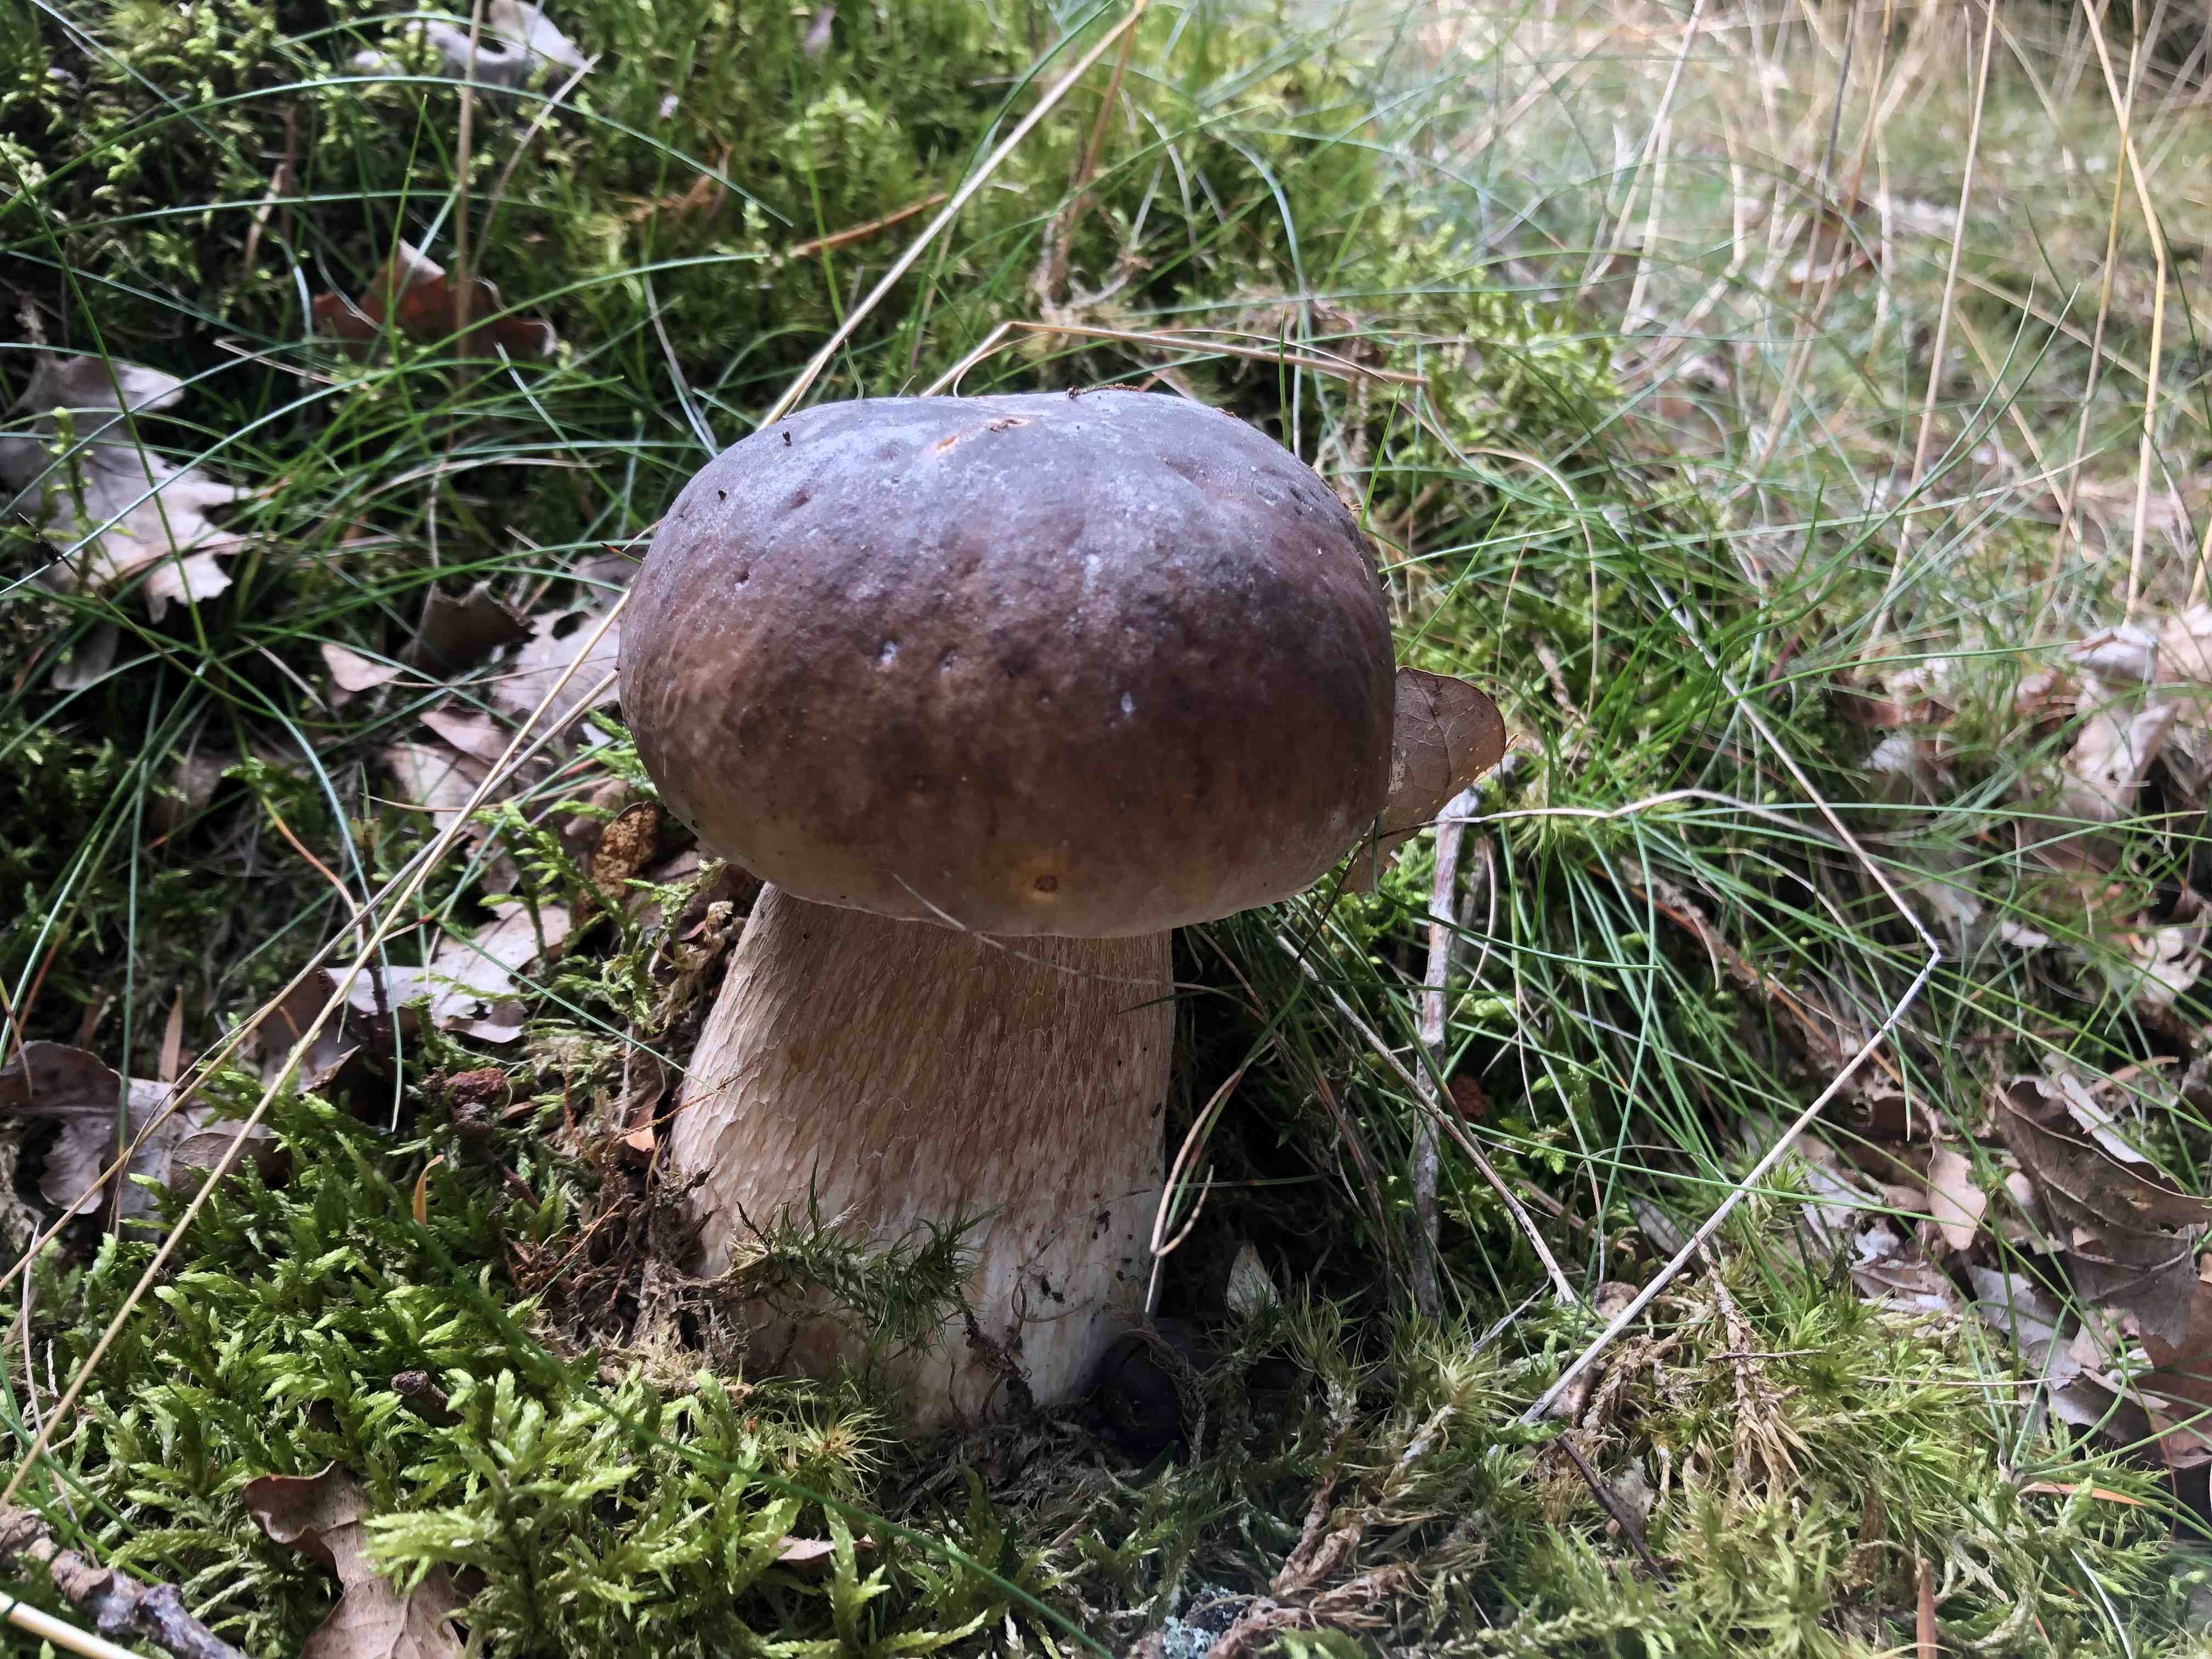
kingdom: Fungi
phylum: Basidiomycota
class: Agaricomycetes
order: Boletales
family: Boletaceae
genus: Boletus
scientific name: Boletus edulis
